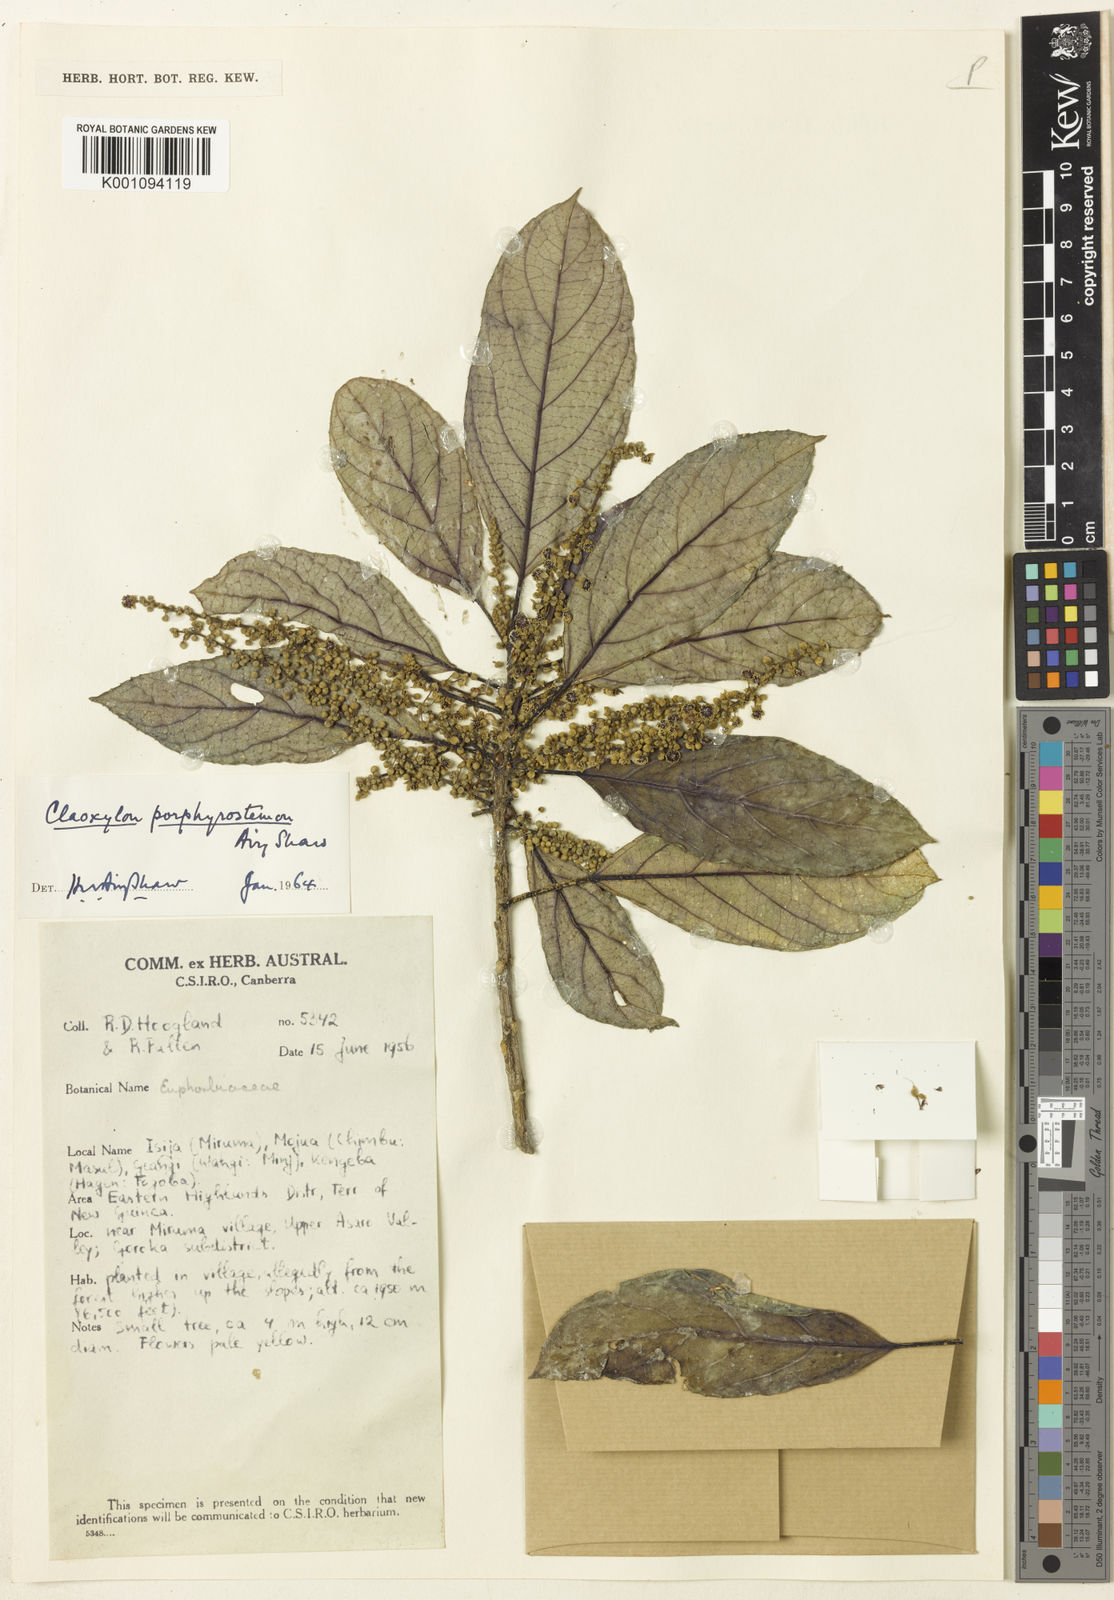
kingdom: Plantae
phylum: Tracheophyta
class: Magnoliopsida
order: Malpighiales
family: Euphorbiaceae
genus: Claoxylon
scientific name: Claoxylon porphyrostemon
